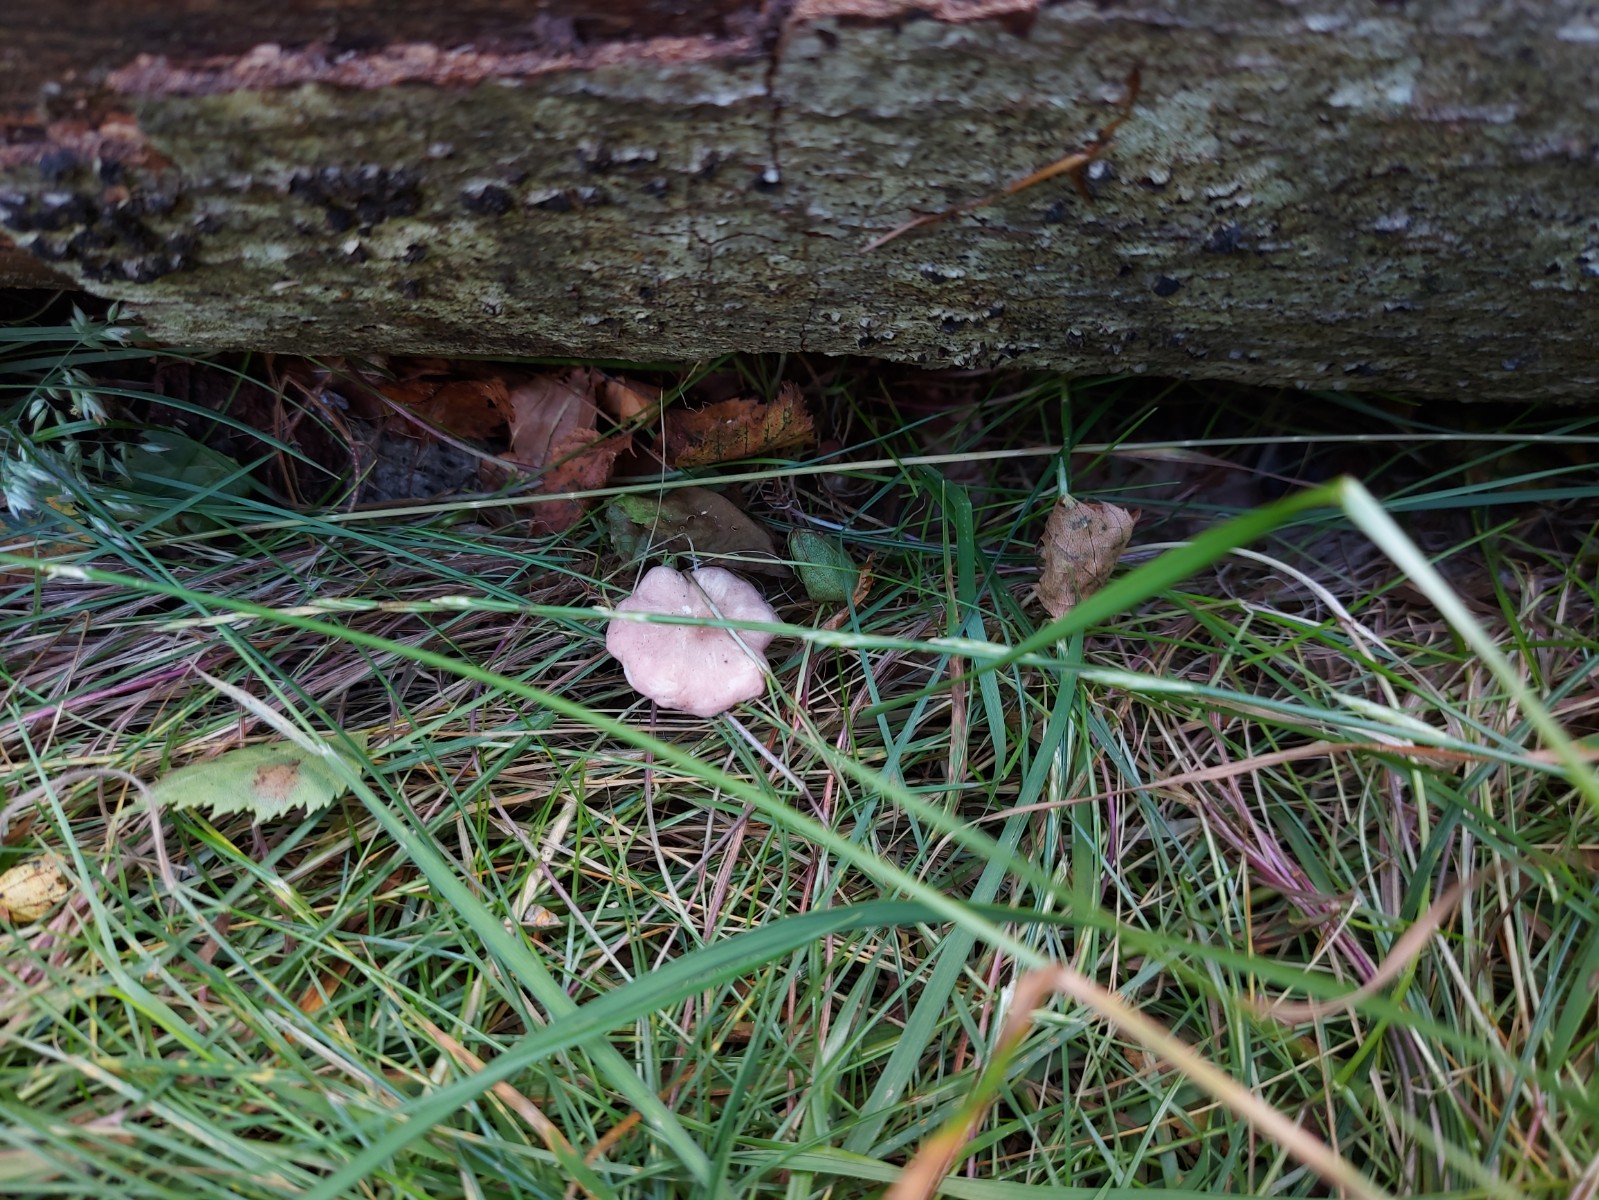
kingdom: Fungi
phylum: Basidiomycota
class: Agaricomycetes
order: Agaricales
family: Lyophyllaceae
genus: Calocybe
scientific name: Calocybe carnea
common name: rosa fagerhat
